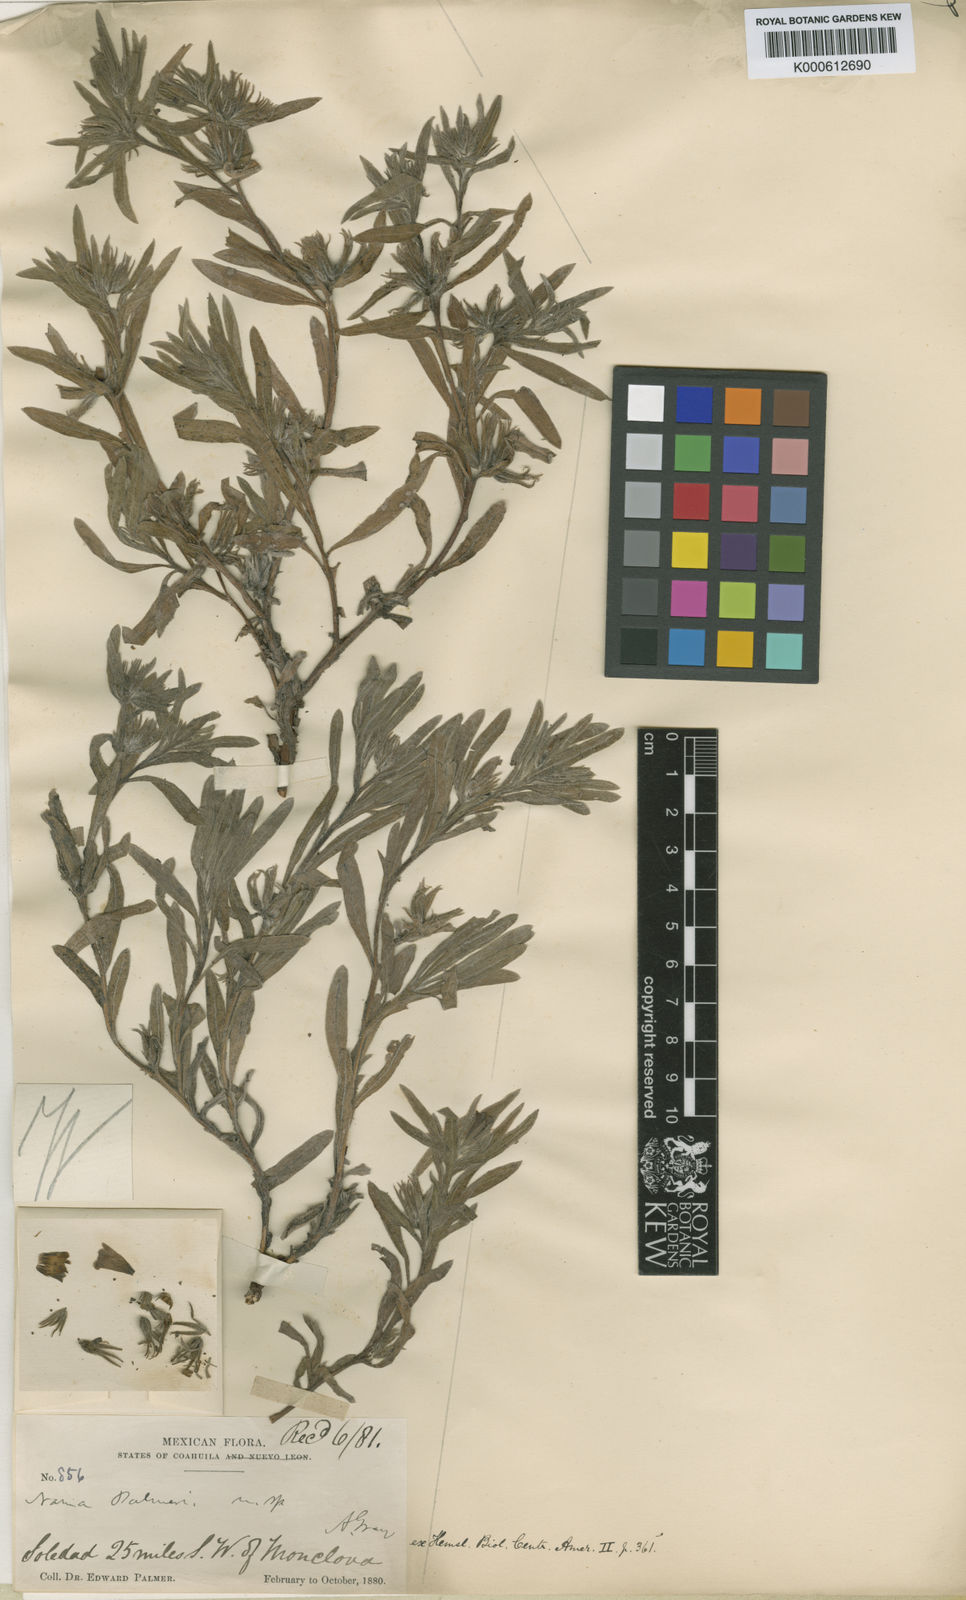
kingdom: Plantae
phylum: Tracheophyta
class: Magnoliopsida
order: Boraginales
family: Namaceae
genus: Nama
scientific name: Nama palmeri
